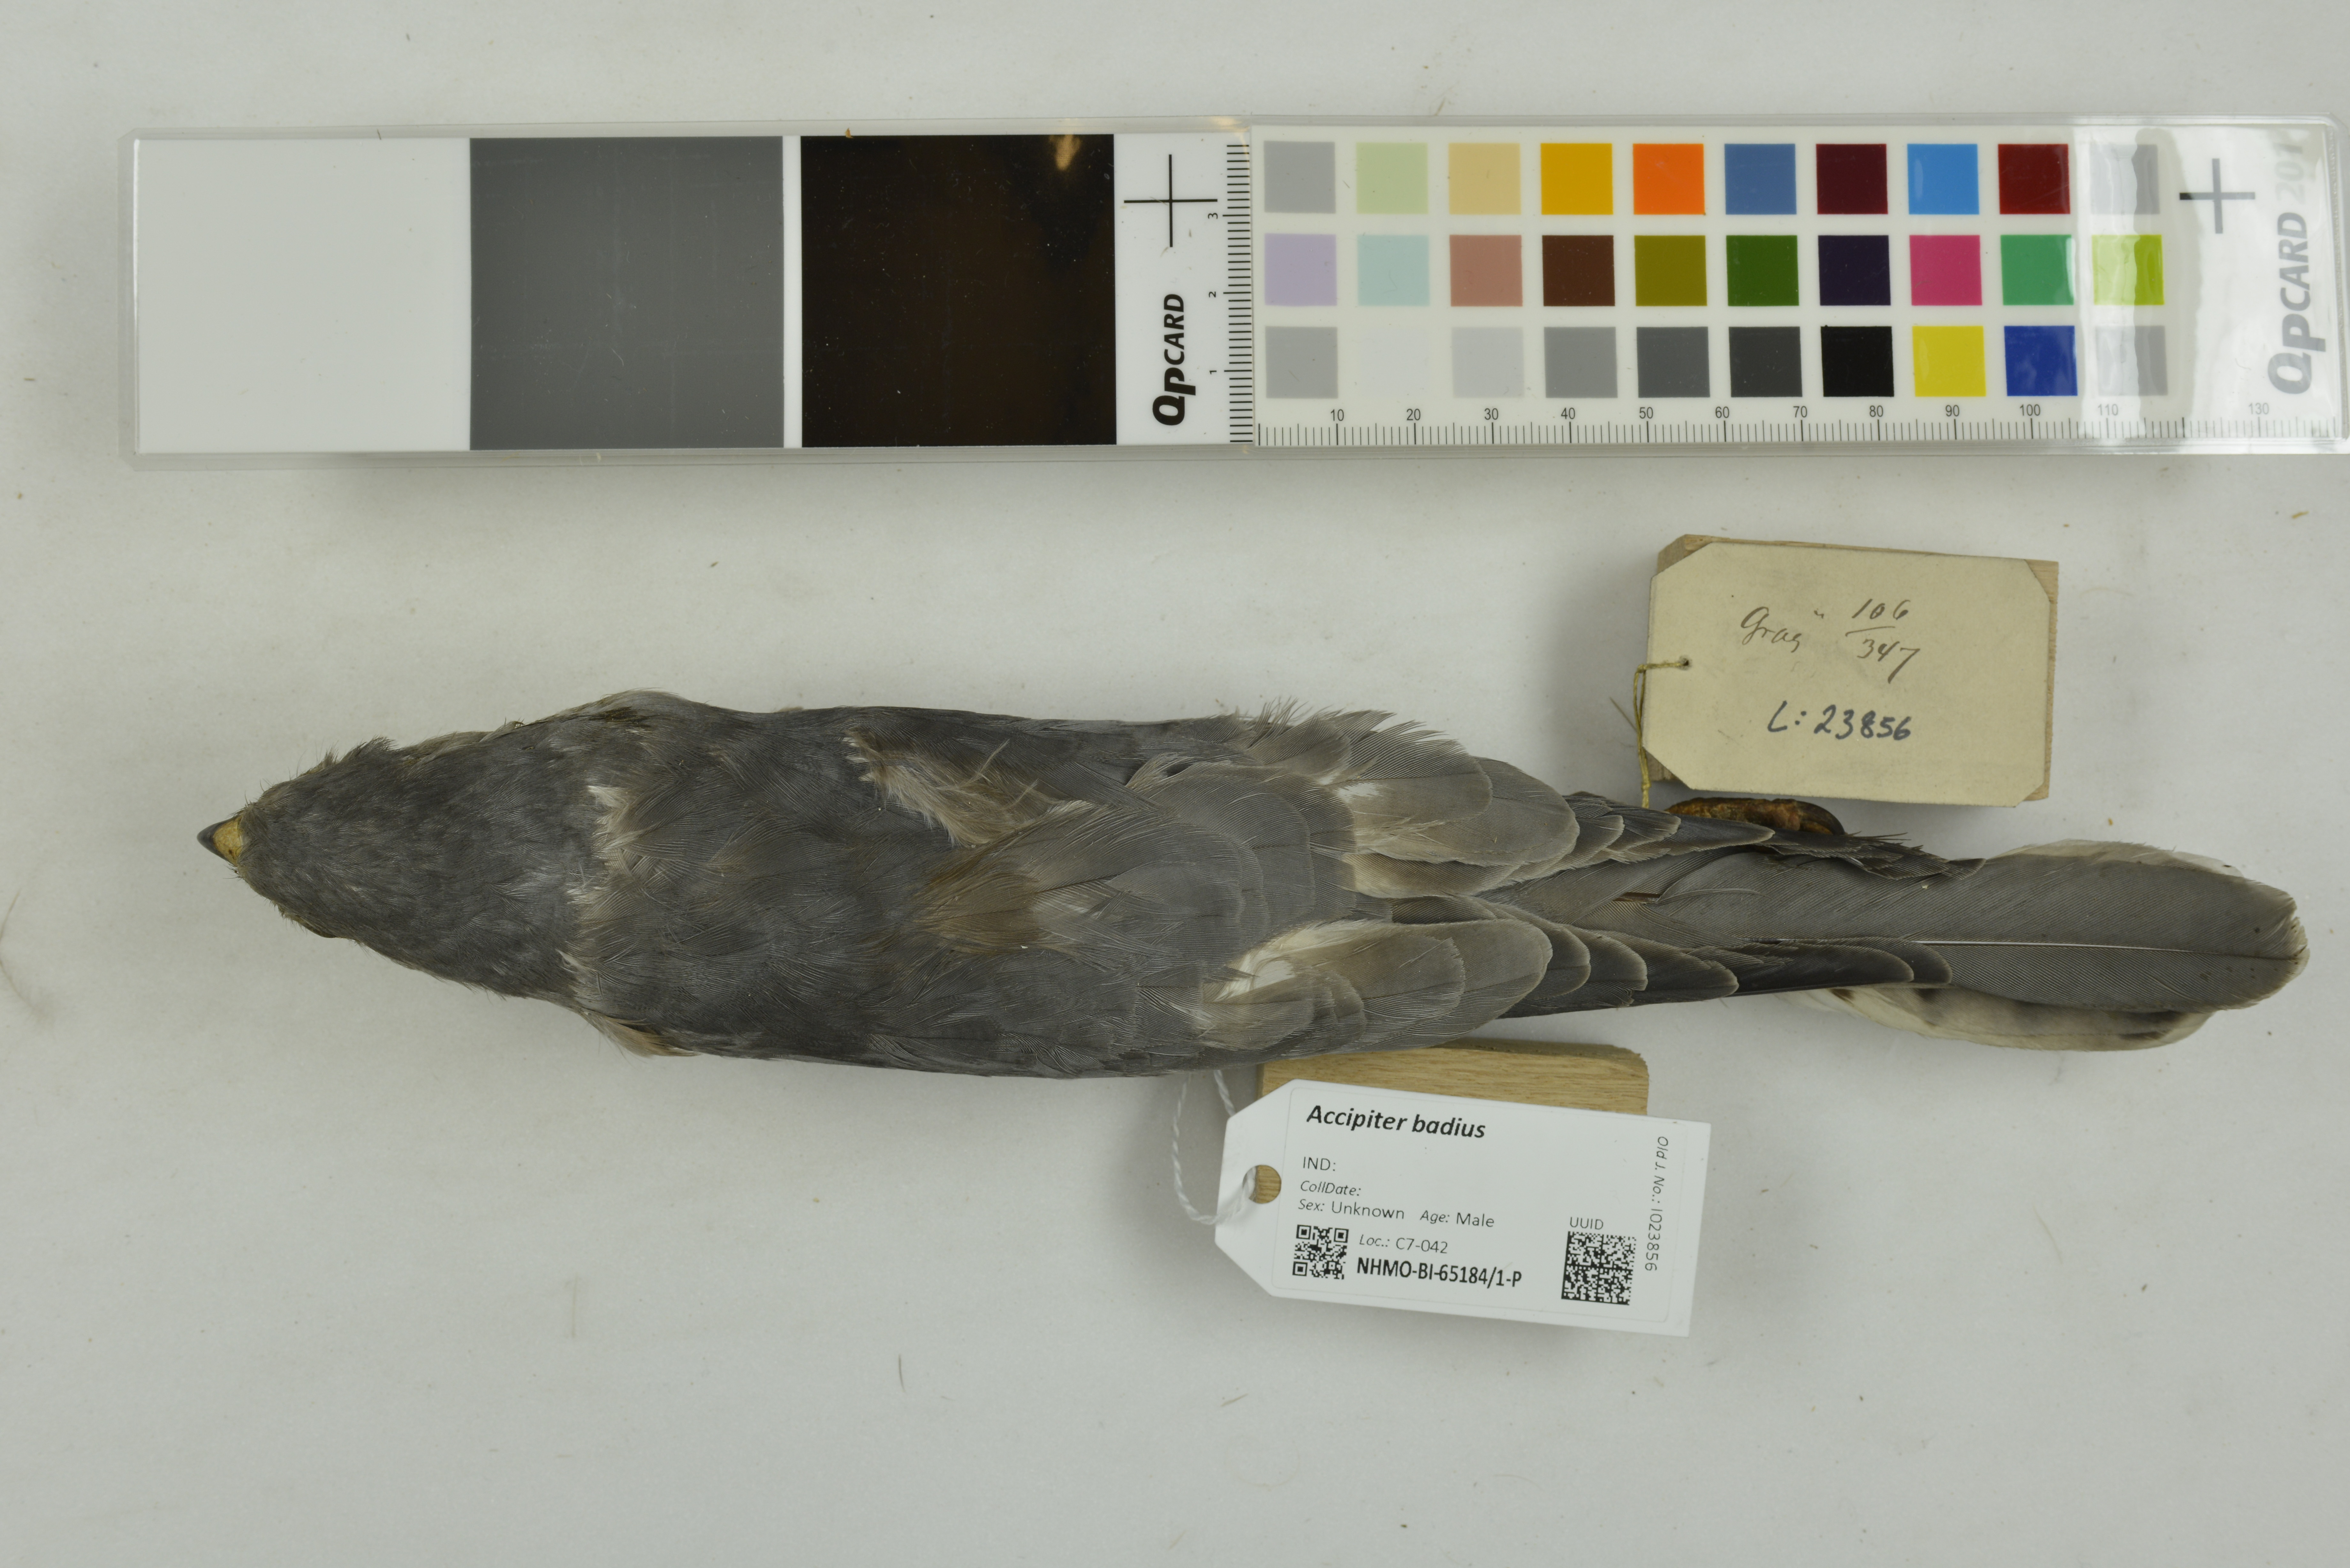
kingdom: Animalia
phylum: Chordata
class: Aves
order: Accipitriformes
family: Accipitridae
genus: Accipiter
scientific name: Accipiter badius
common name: Shikra
